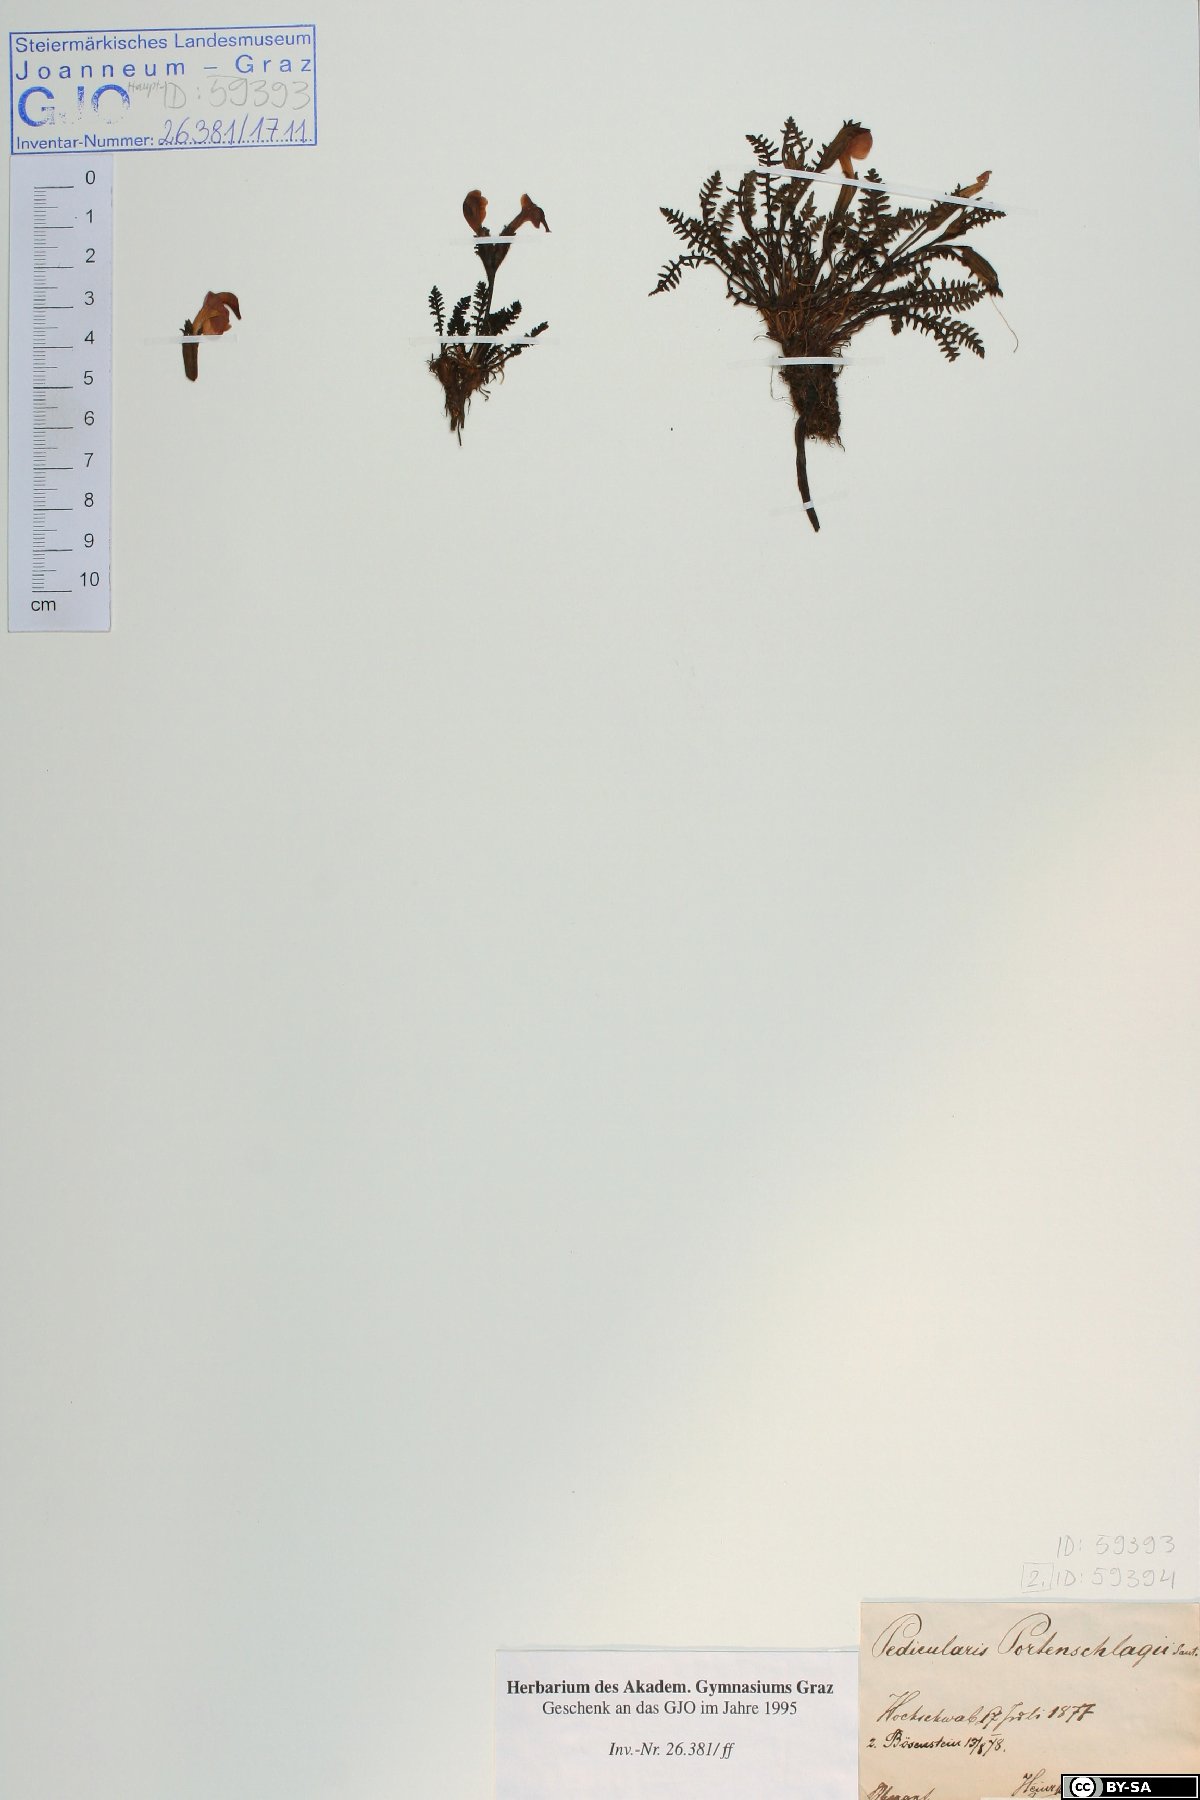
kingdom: Plantae
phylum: Tracheophyta
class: Magnoliopsida
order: Lamiales
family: Orobanchaceae
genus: Pedicularis
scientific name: Pedicularis portenschlagii
